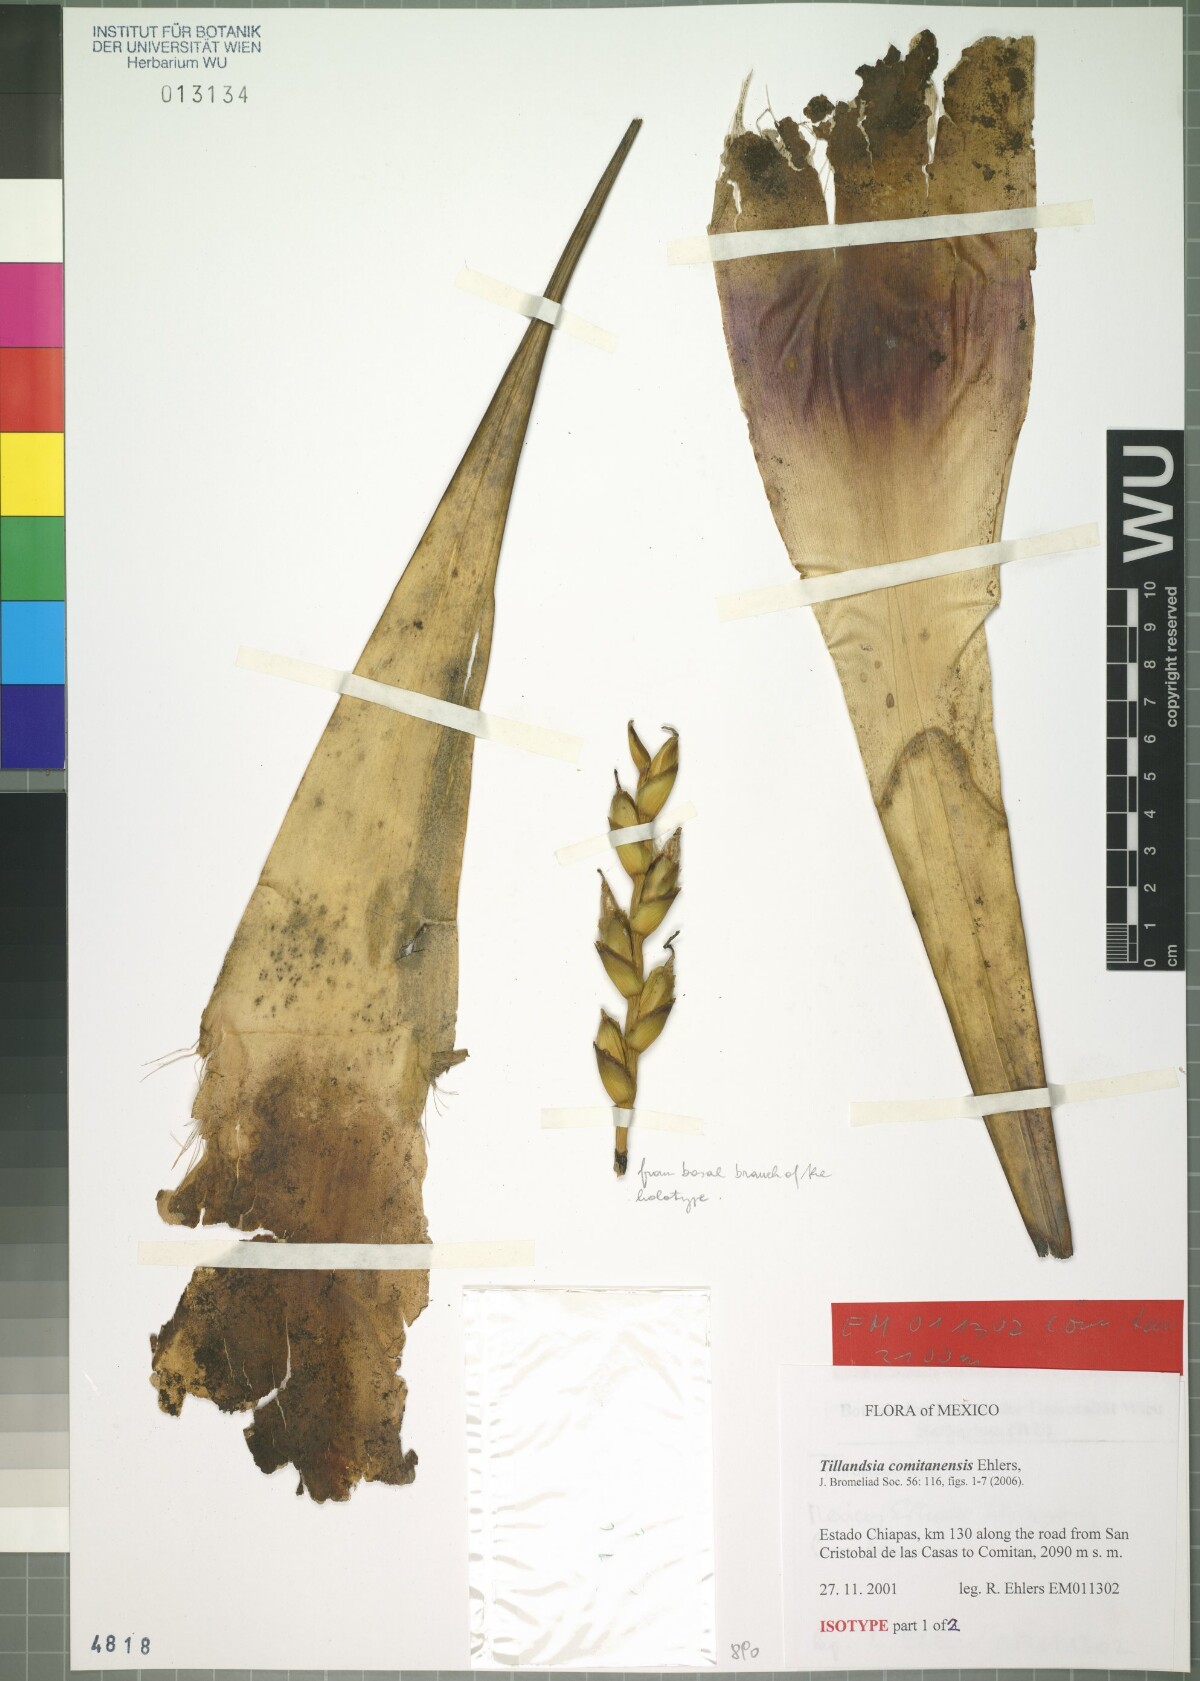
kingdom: Plantae
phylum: Tracheophyta
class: Liliopsida
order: Poales
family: Bromeliaceae
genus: Tillandsia
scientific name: Tillandsia comitanensis
